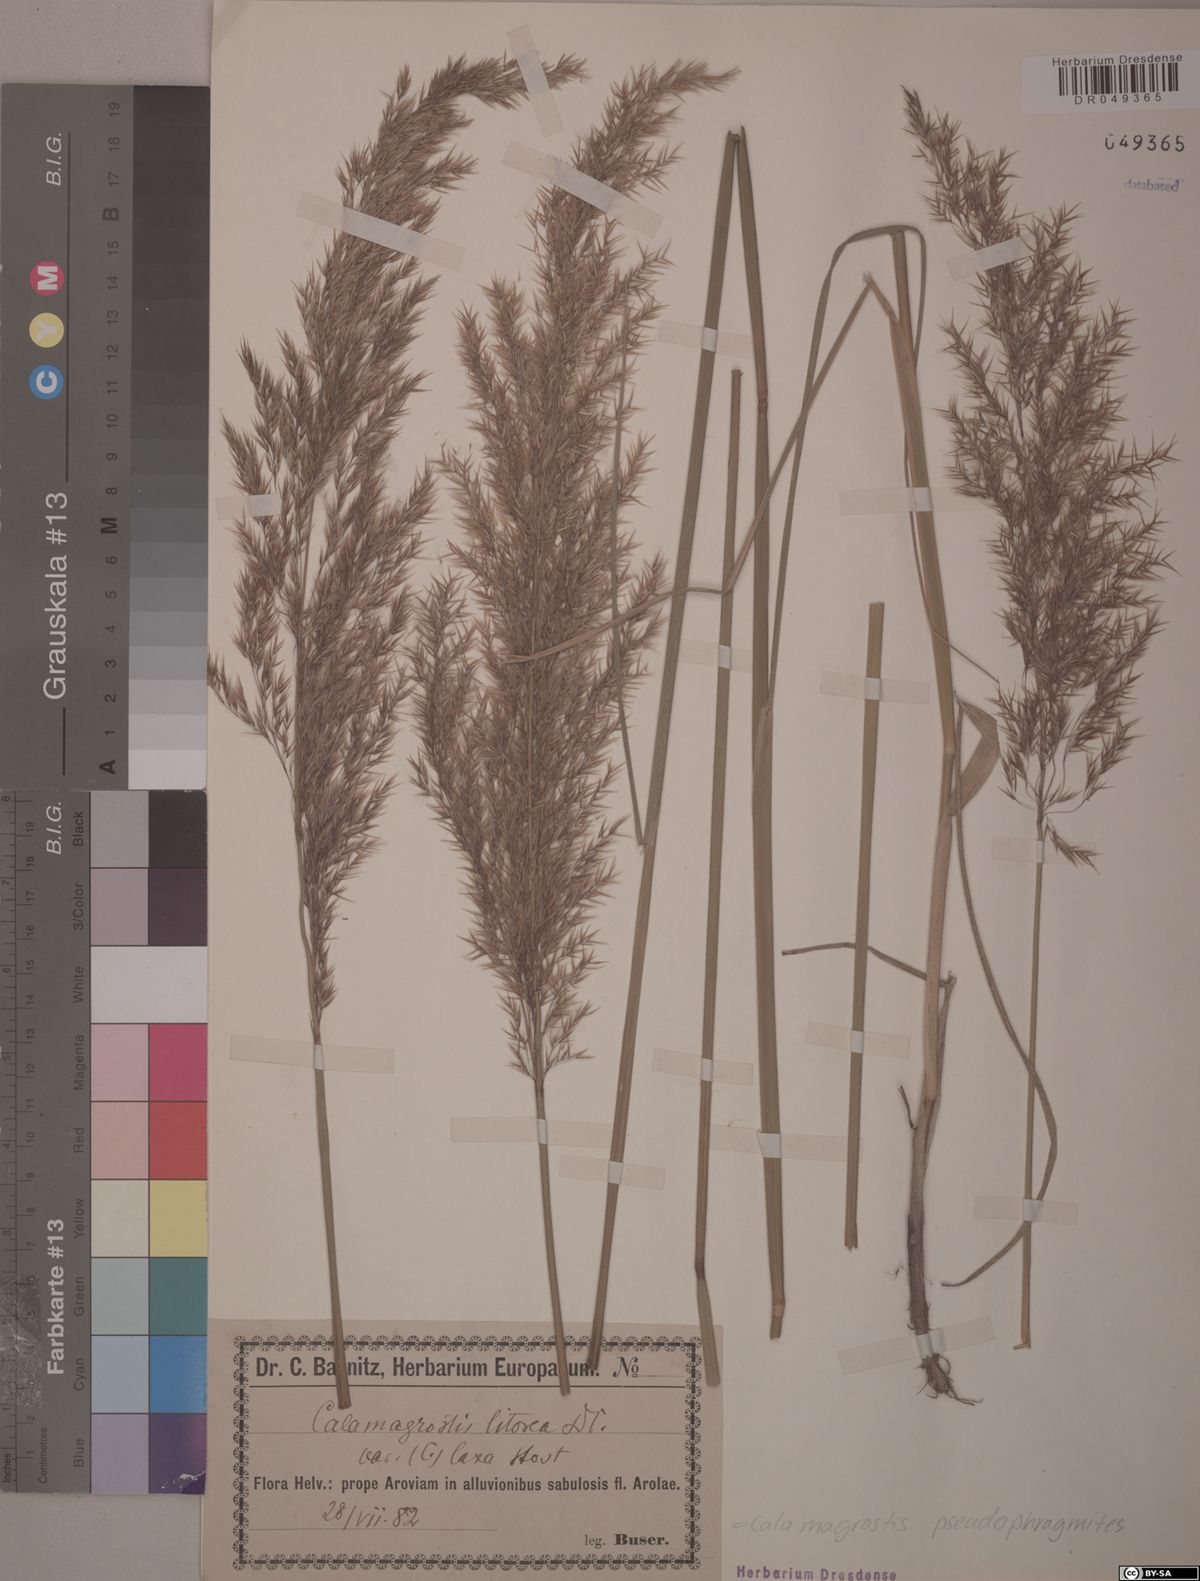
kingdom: Plantae
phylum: Tracheophyta
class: Liliopsida
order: Poales
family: Poaceae
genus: Calamagrostis
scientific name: Calamagrostis pseudophragmites
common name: Coastal small-reed
